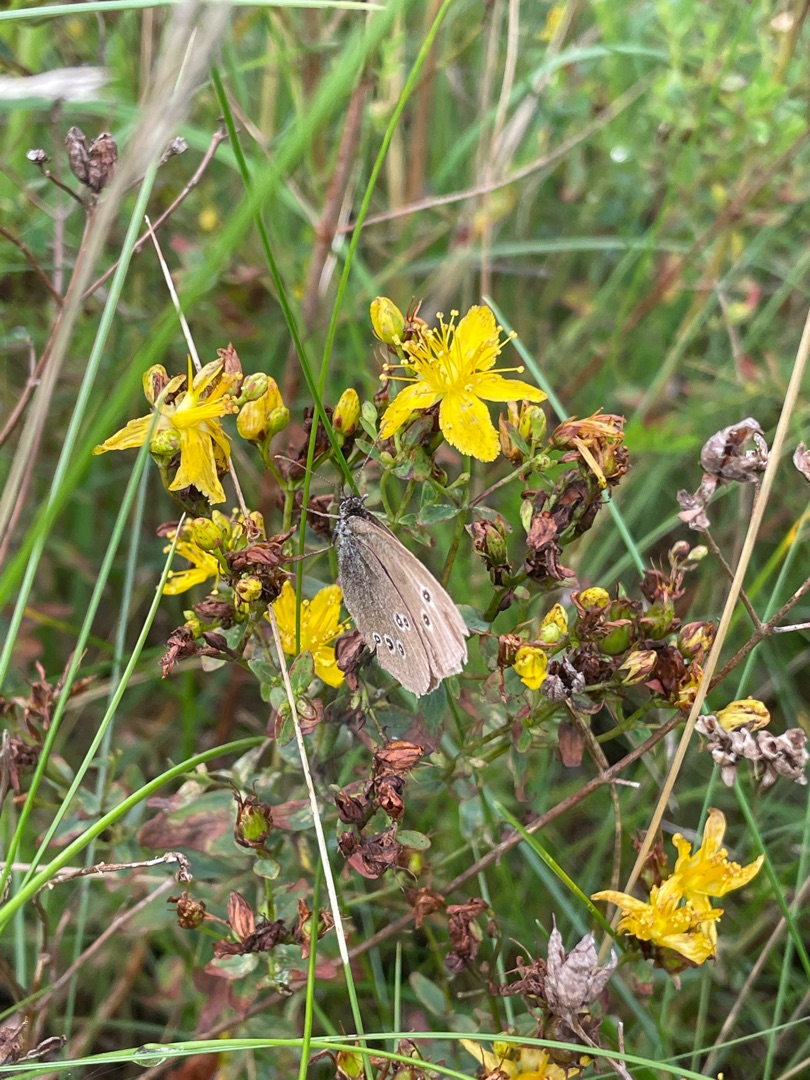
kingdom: Animalia
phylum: Arthropoda
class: Insecta
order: Lepidoptera
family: Nymphalidae
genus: Aphantopus
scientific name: Aphantopus hyperantus
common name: Engrandøje
